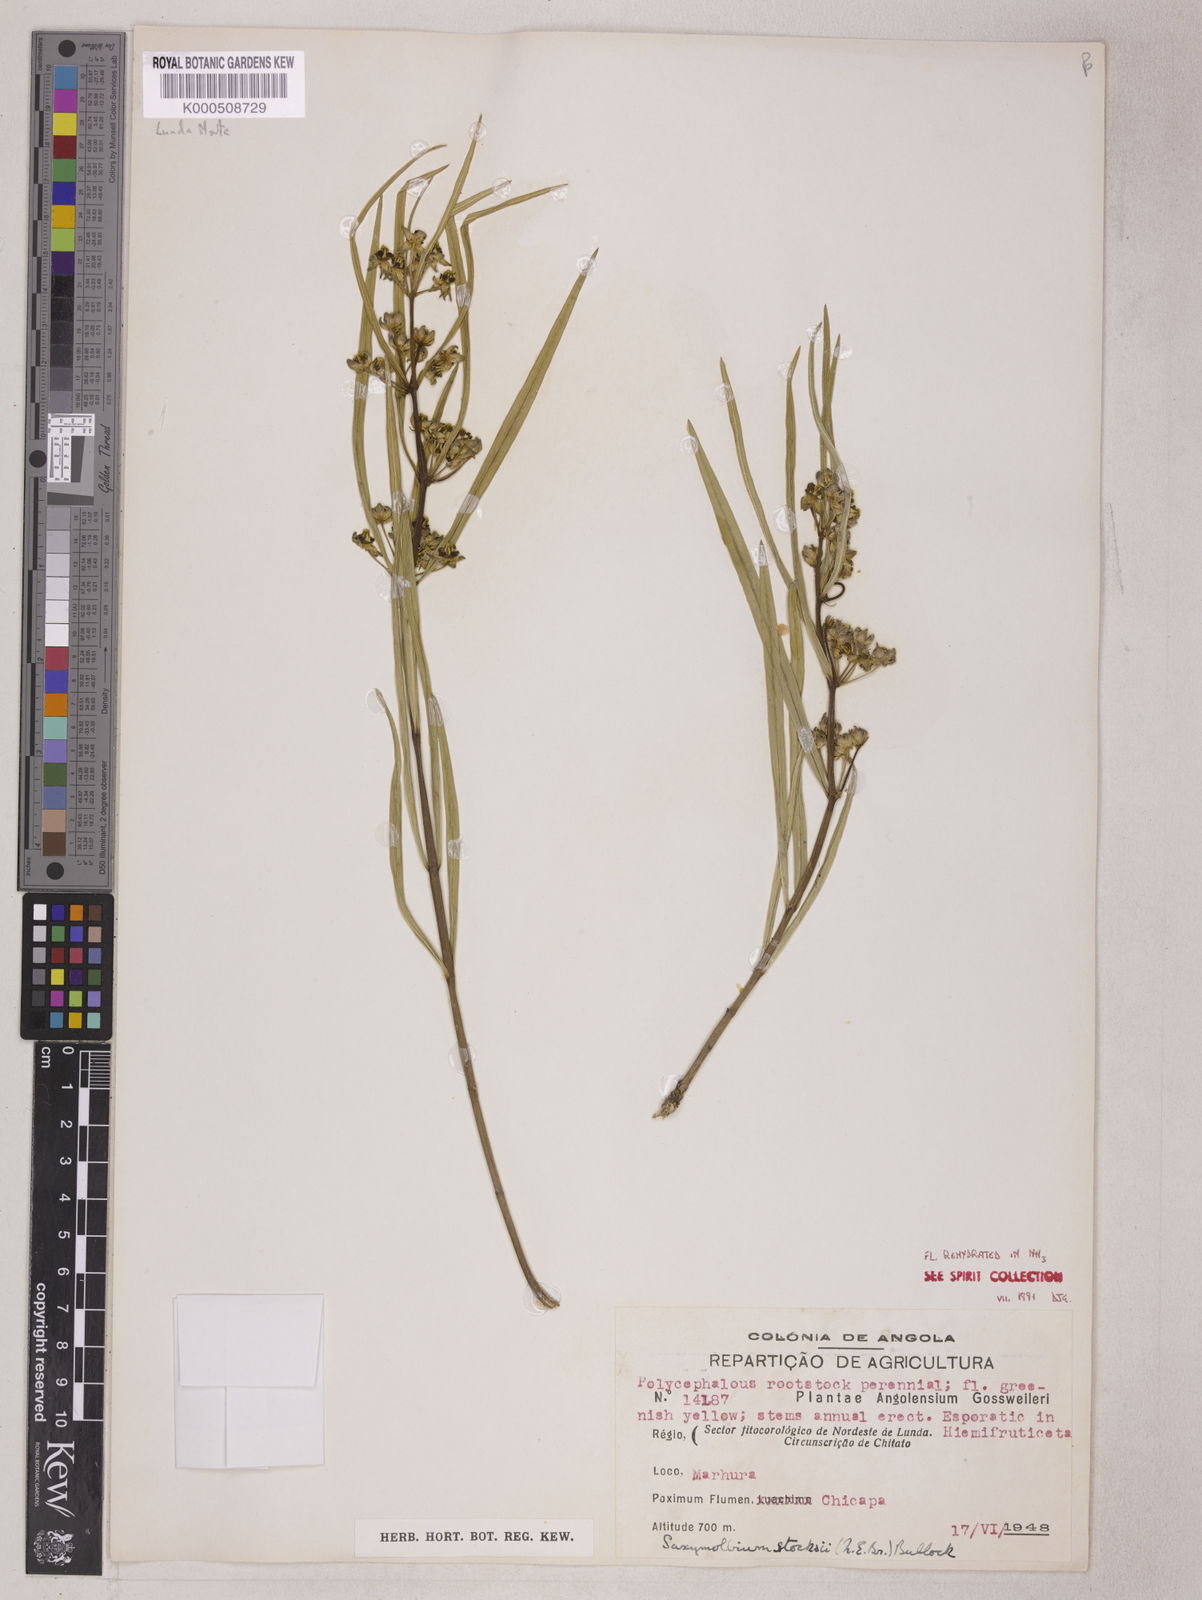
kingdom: Plantae
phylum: Tracheophyta
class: Magnoliopsida
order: Gentianales
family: Apocynaceae
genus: Xysmalobium
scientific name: Xysmalobium stocksii
